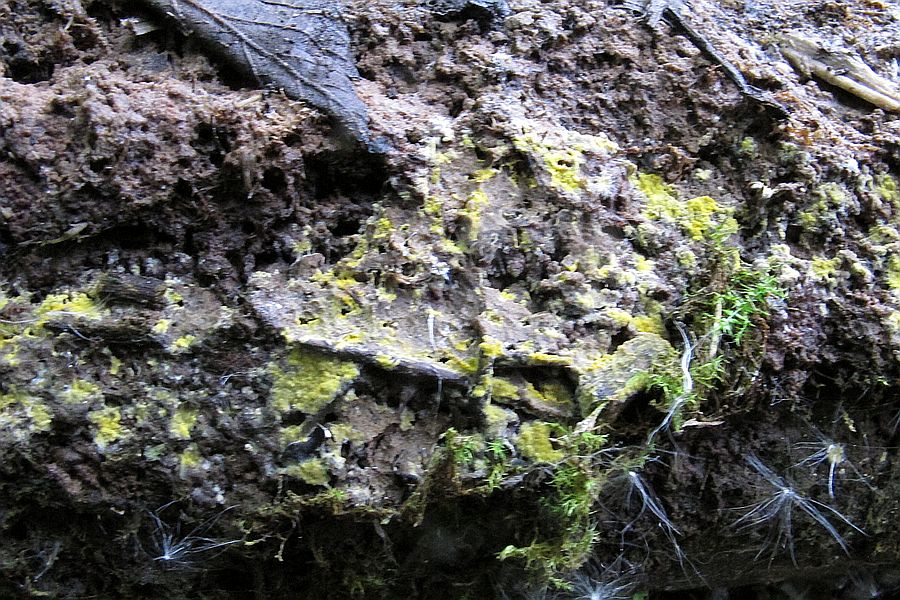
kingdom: Fungi
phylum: Basidiomycota
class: Agaricomycetes
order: Polyporales
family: Meruliaceae
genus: Phlebiodontia
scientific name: Phlebiodontia subochracea
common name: svovl-åresvamp
